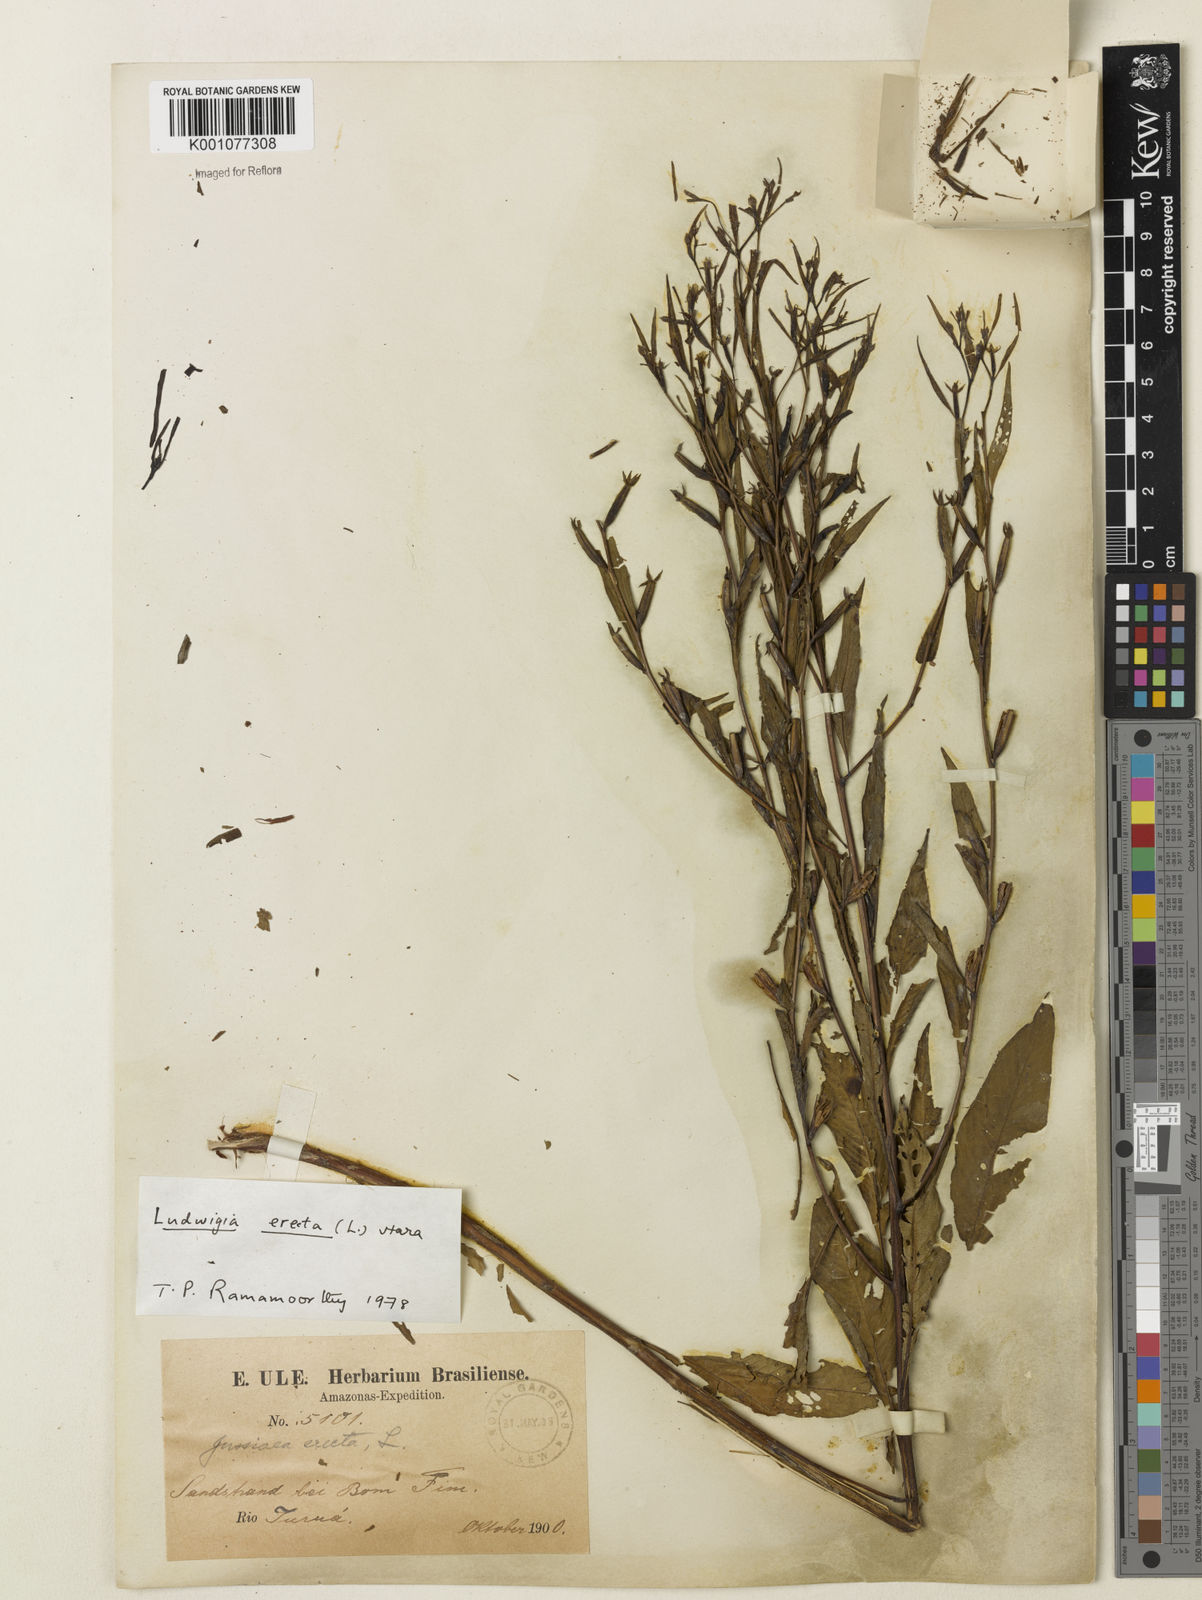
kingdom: Plantae
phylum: Tracheophyta
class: Magnoliopsida
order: Myrtales
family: Onagraceae
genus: Ludwigia
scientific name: Ludwigia erecta
